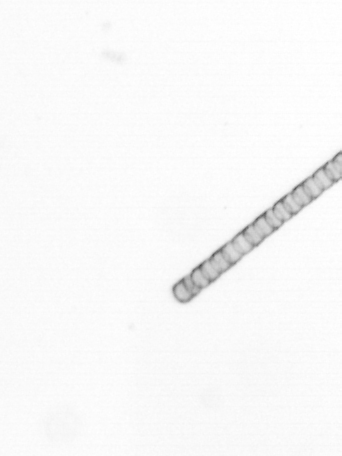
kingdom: Chromista
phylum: Ochrophyta
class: Bacillariophyceae
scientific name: Bacillariophyceae
